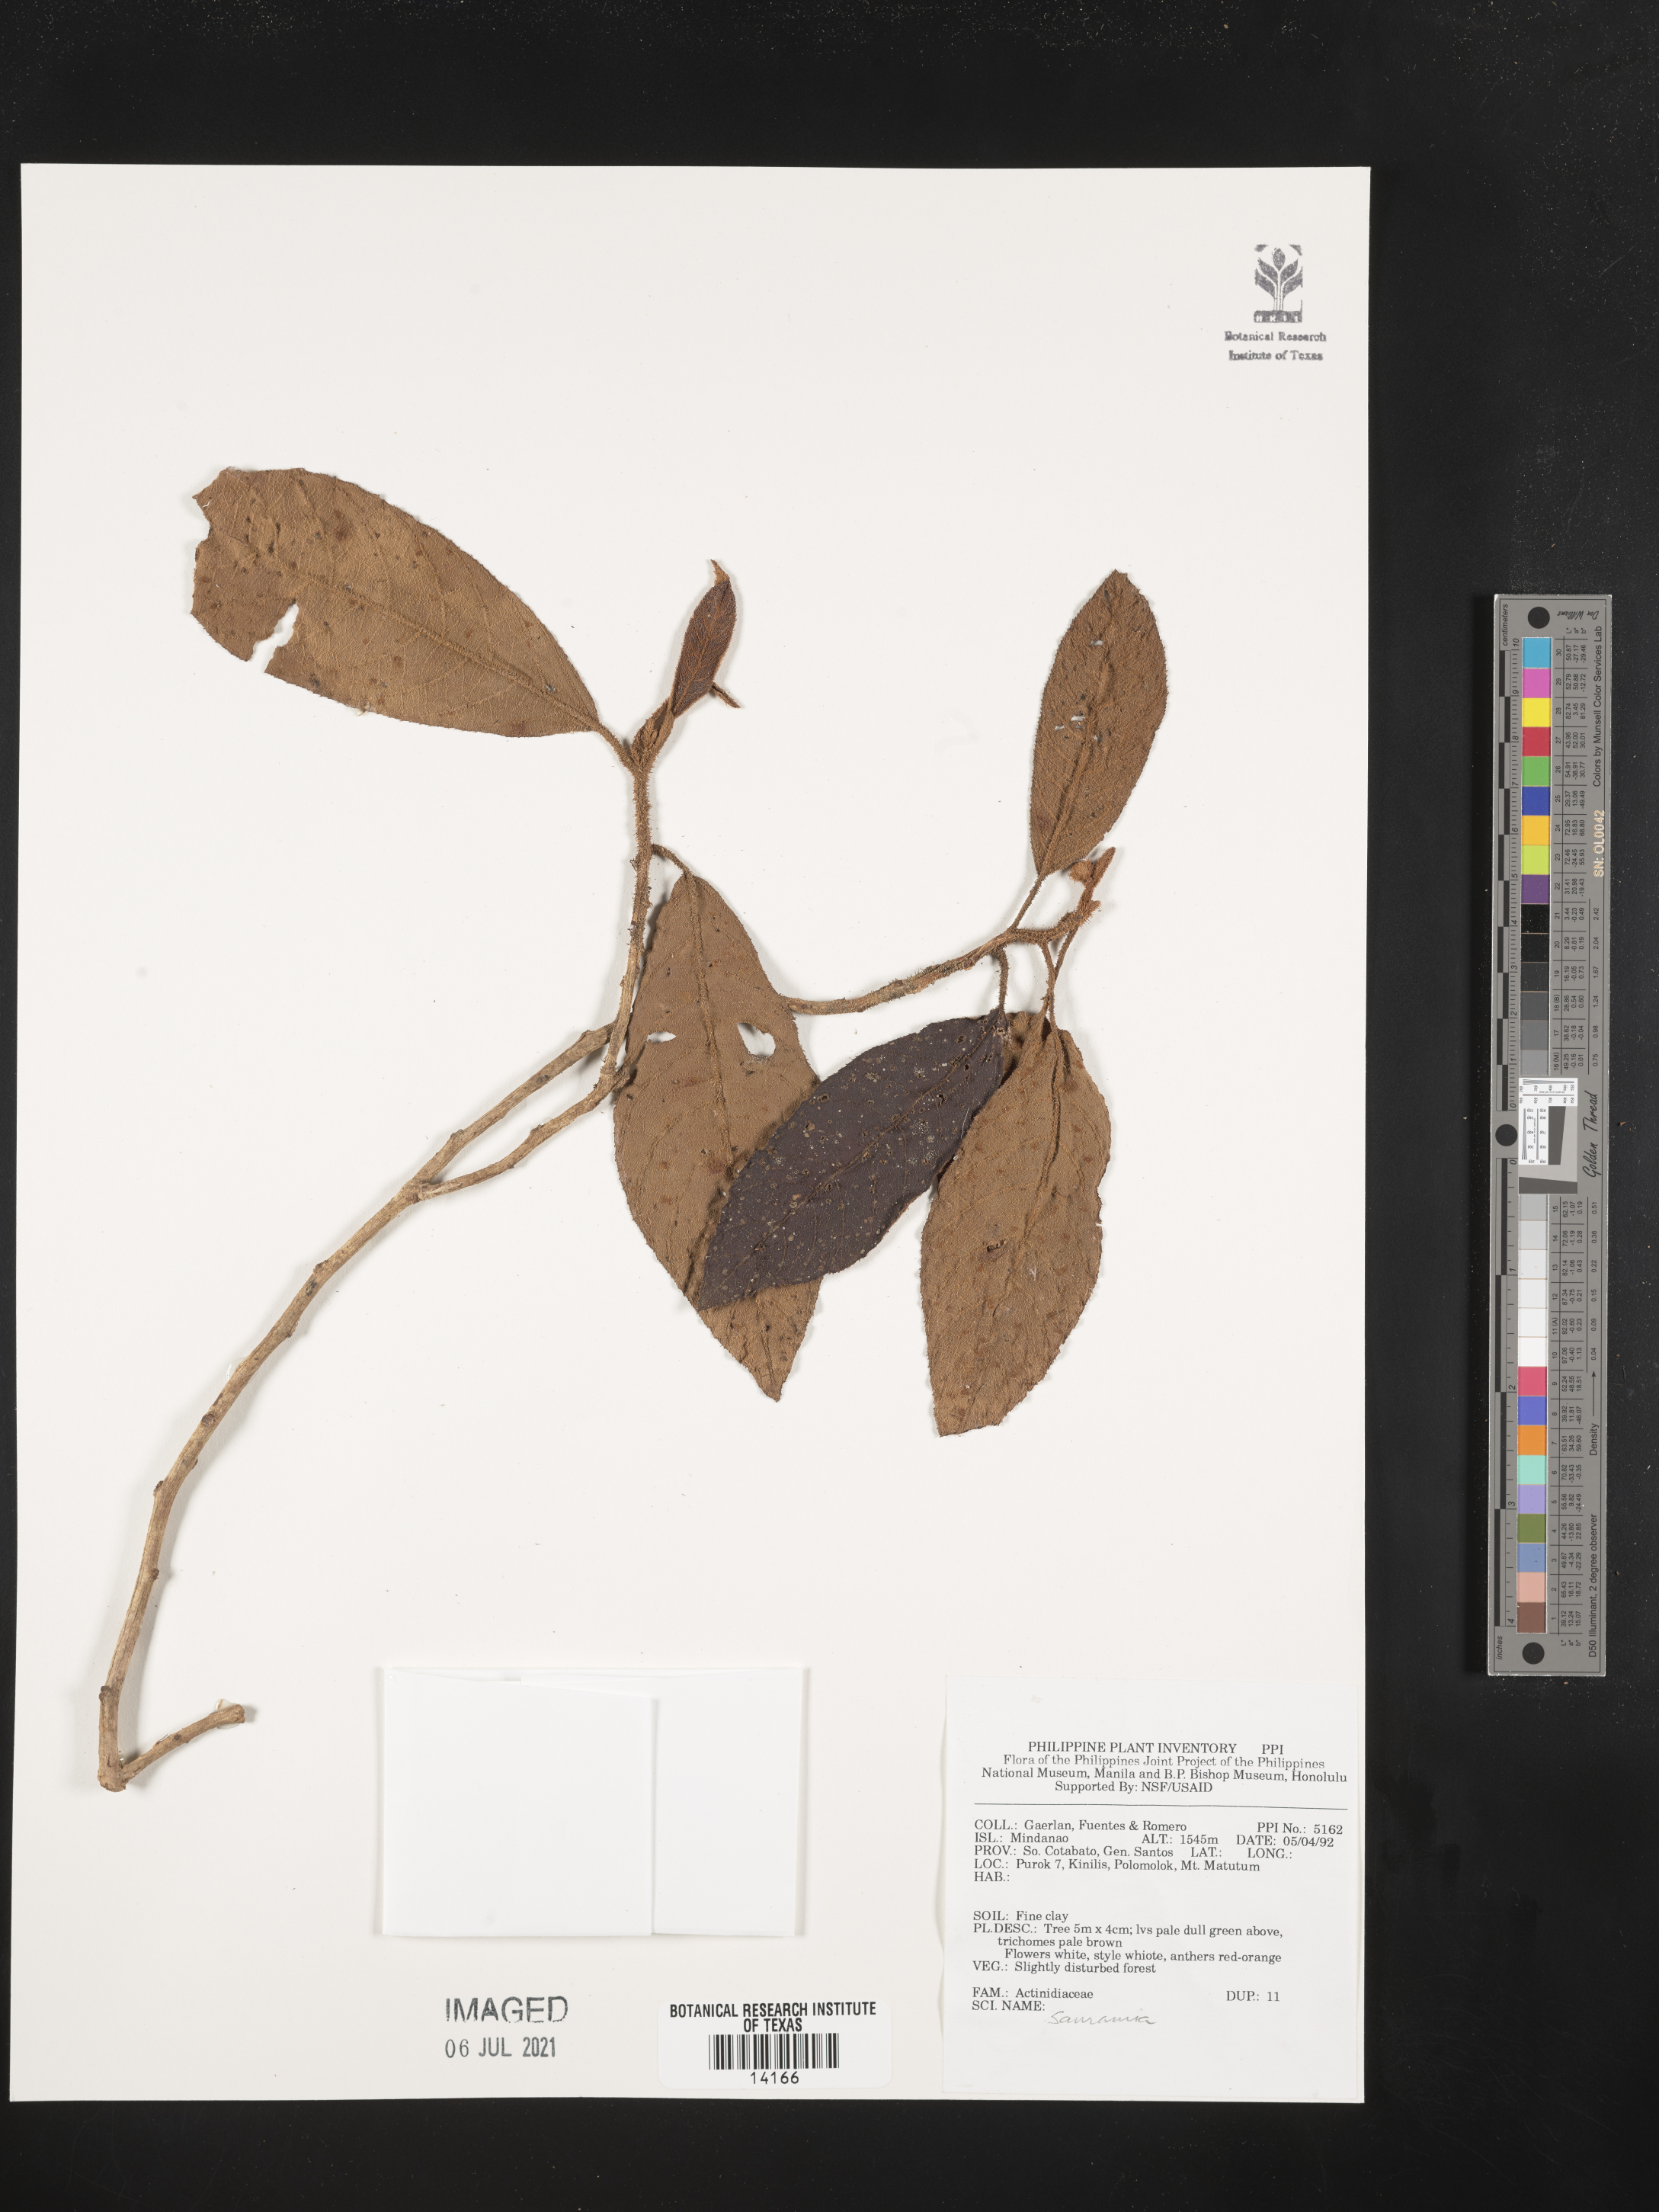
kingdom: Plantae
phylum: Tracheophyta
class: Magnoliopsida
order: Ericales
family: Actinidiaceae
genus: Saurauia
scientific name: Saurauia
